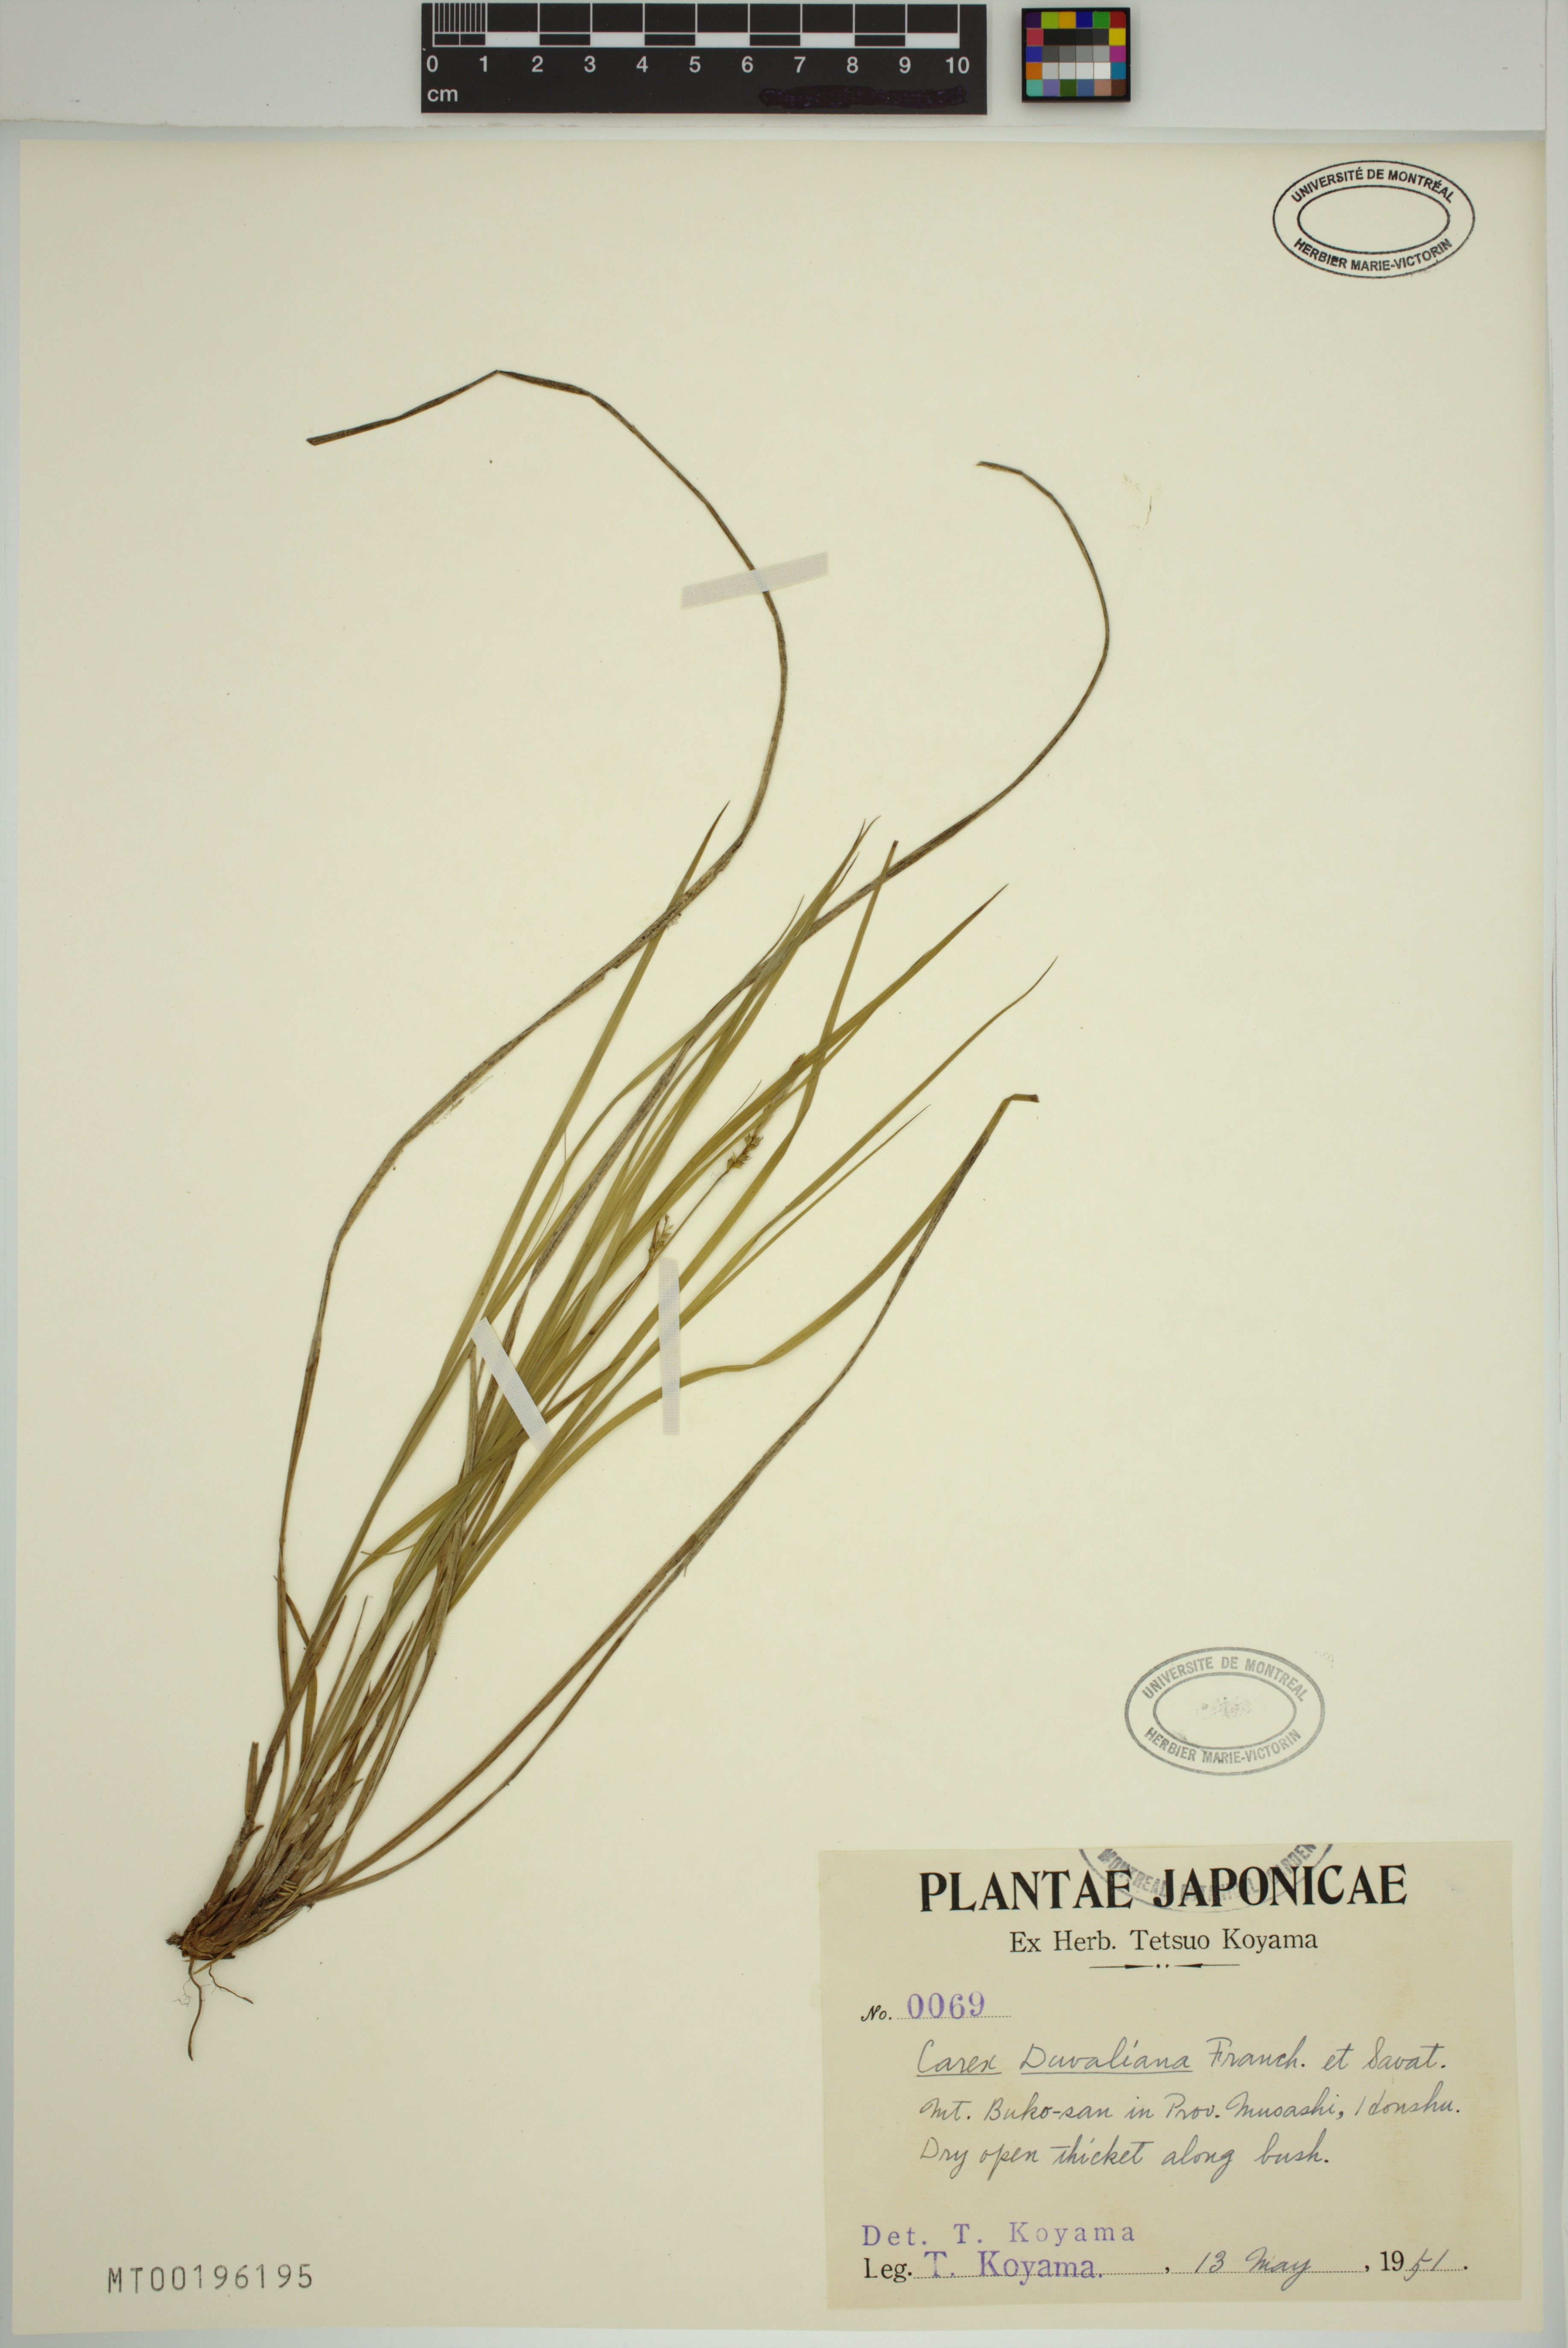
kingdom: Plantae
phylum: Tracheophyta
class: Liliopsida
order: Poales
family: Cyperaceae
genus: Carex
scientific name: Carex duvaliana
